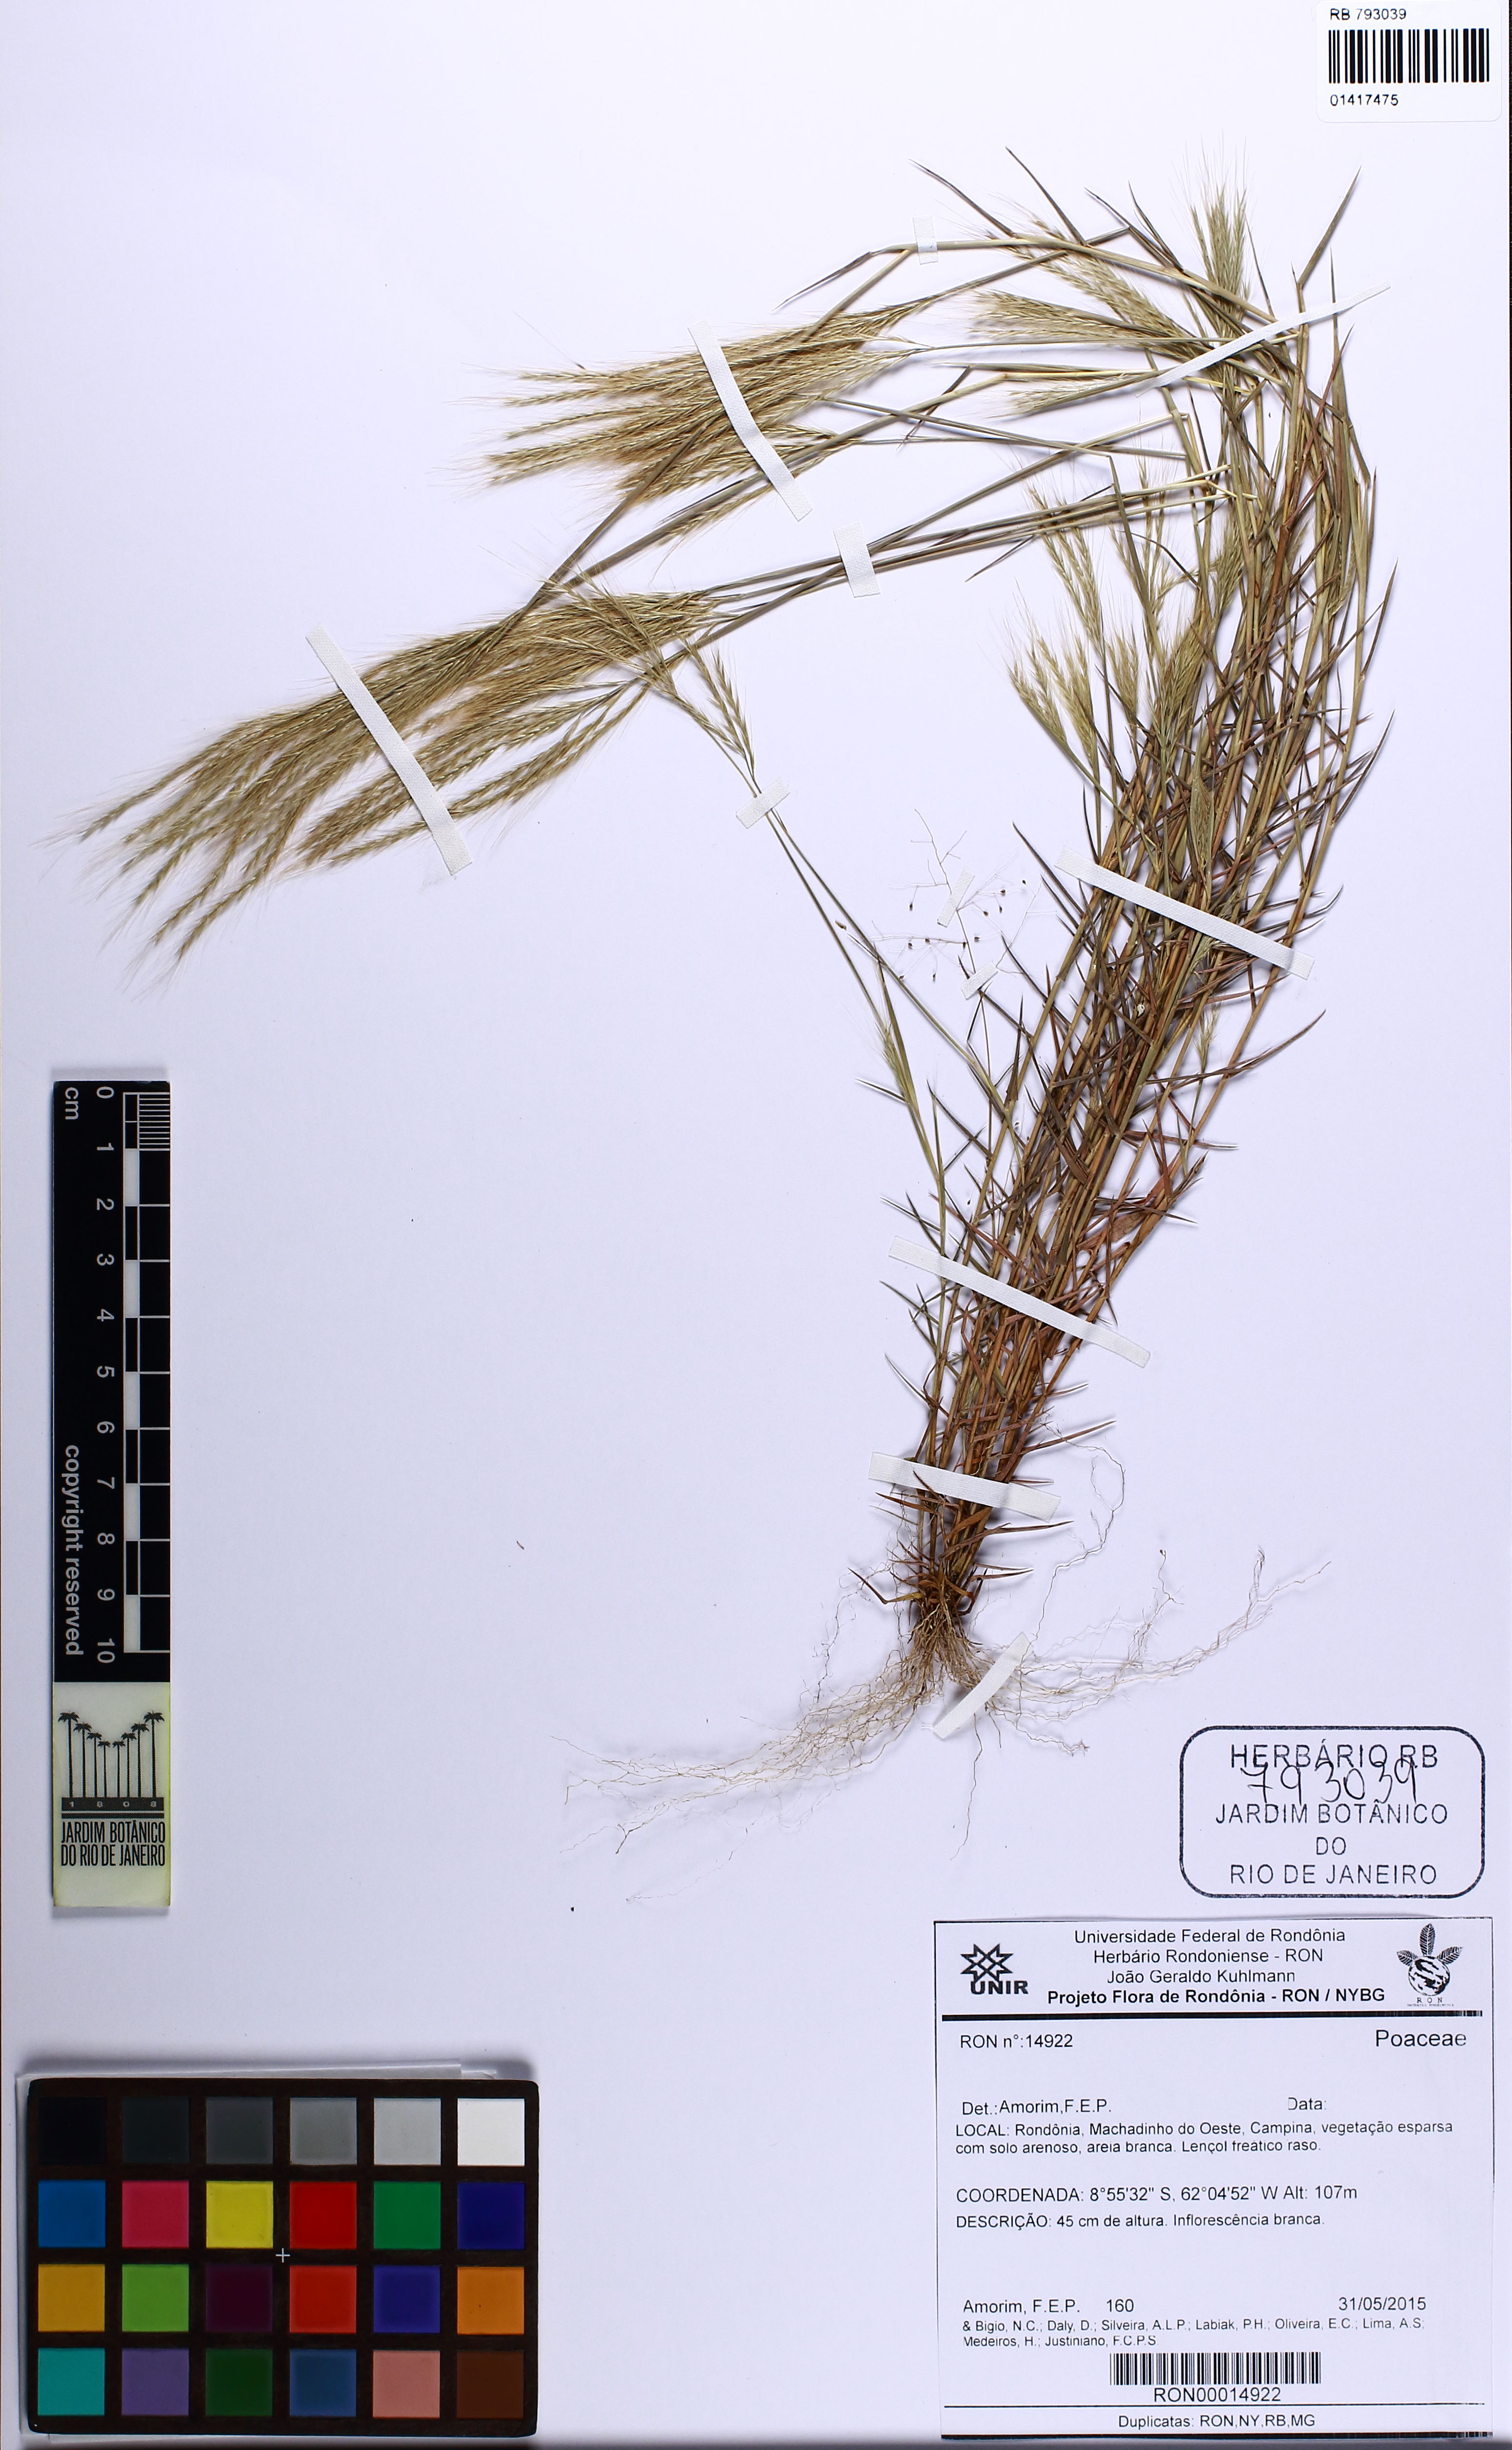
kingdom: Plantae
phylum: Tracheophyta
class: Liliopsida
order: Poales
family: Poaceae
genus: Gymnopogon
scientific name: Gymnopogon
